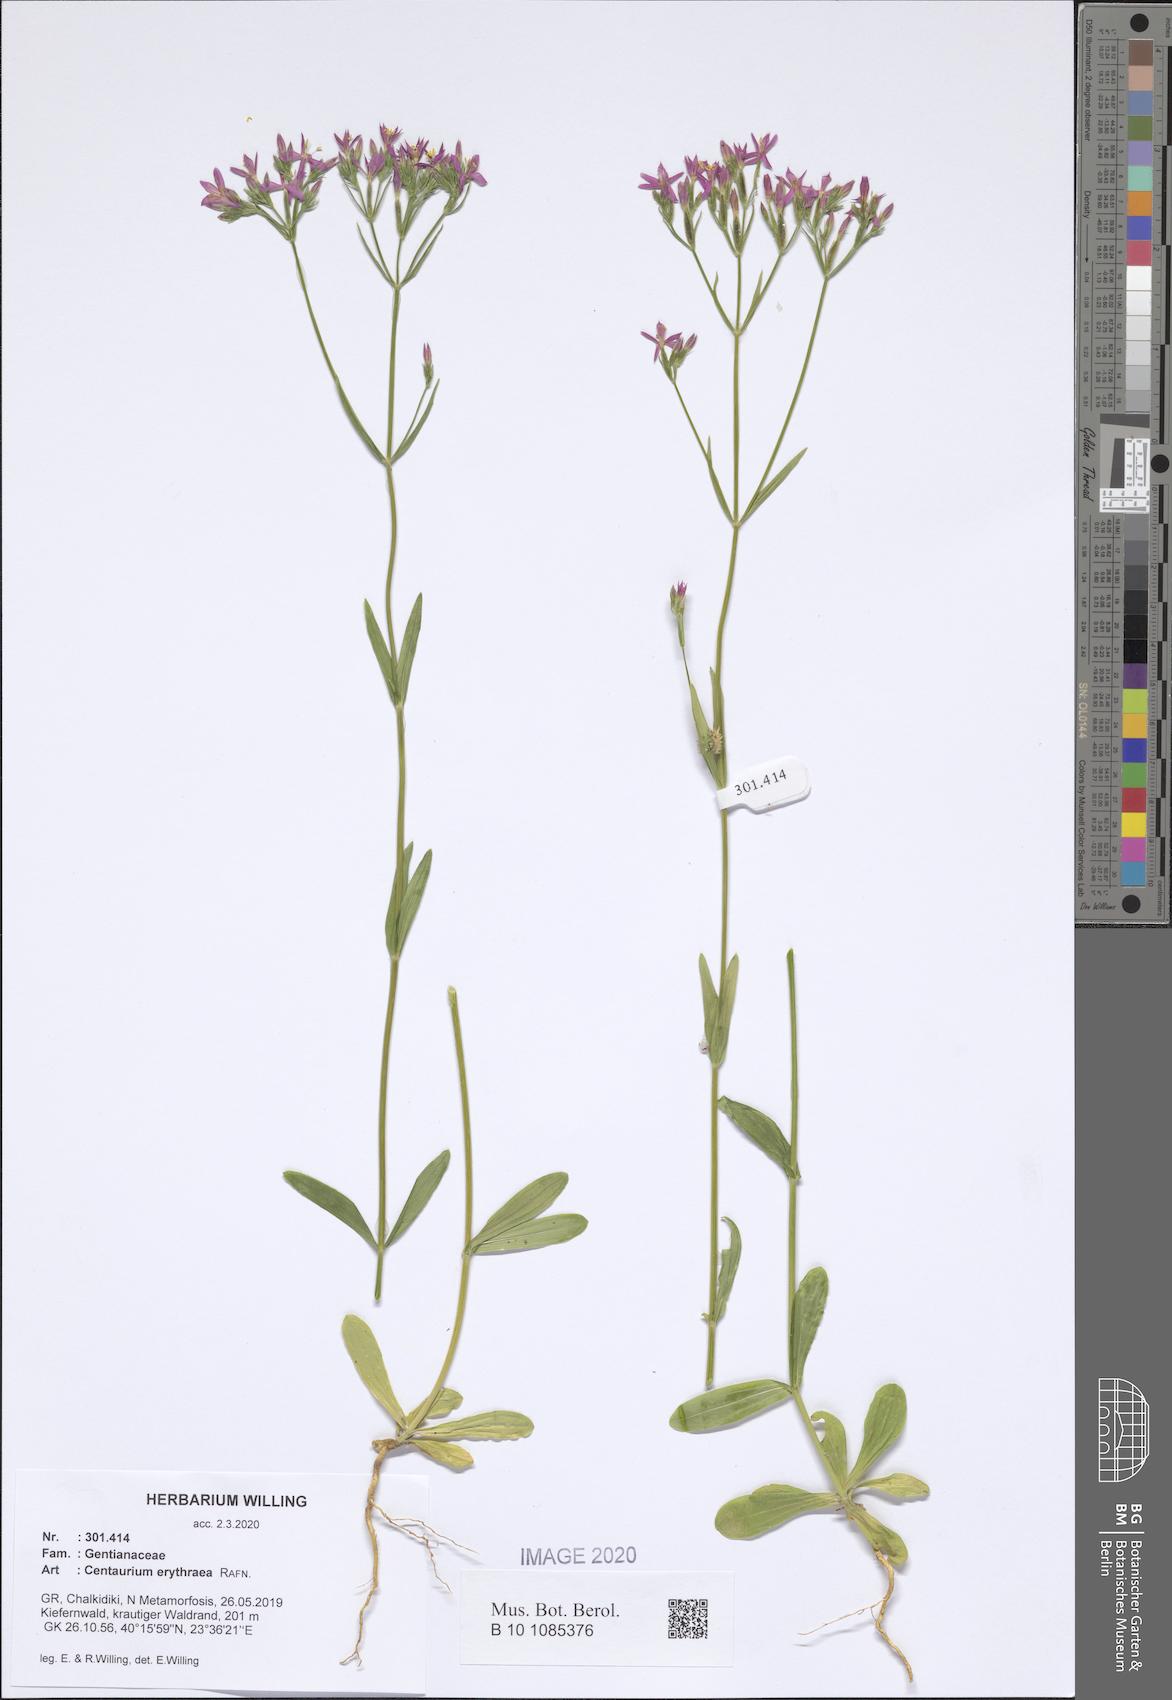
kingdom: Plantae
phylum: Tracheophyta
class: Magnoliopsida
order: Gentianales
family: Gentianaceae
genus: Centaurium
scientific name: Centaurium erythraea
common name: Common centaury
